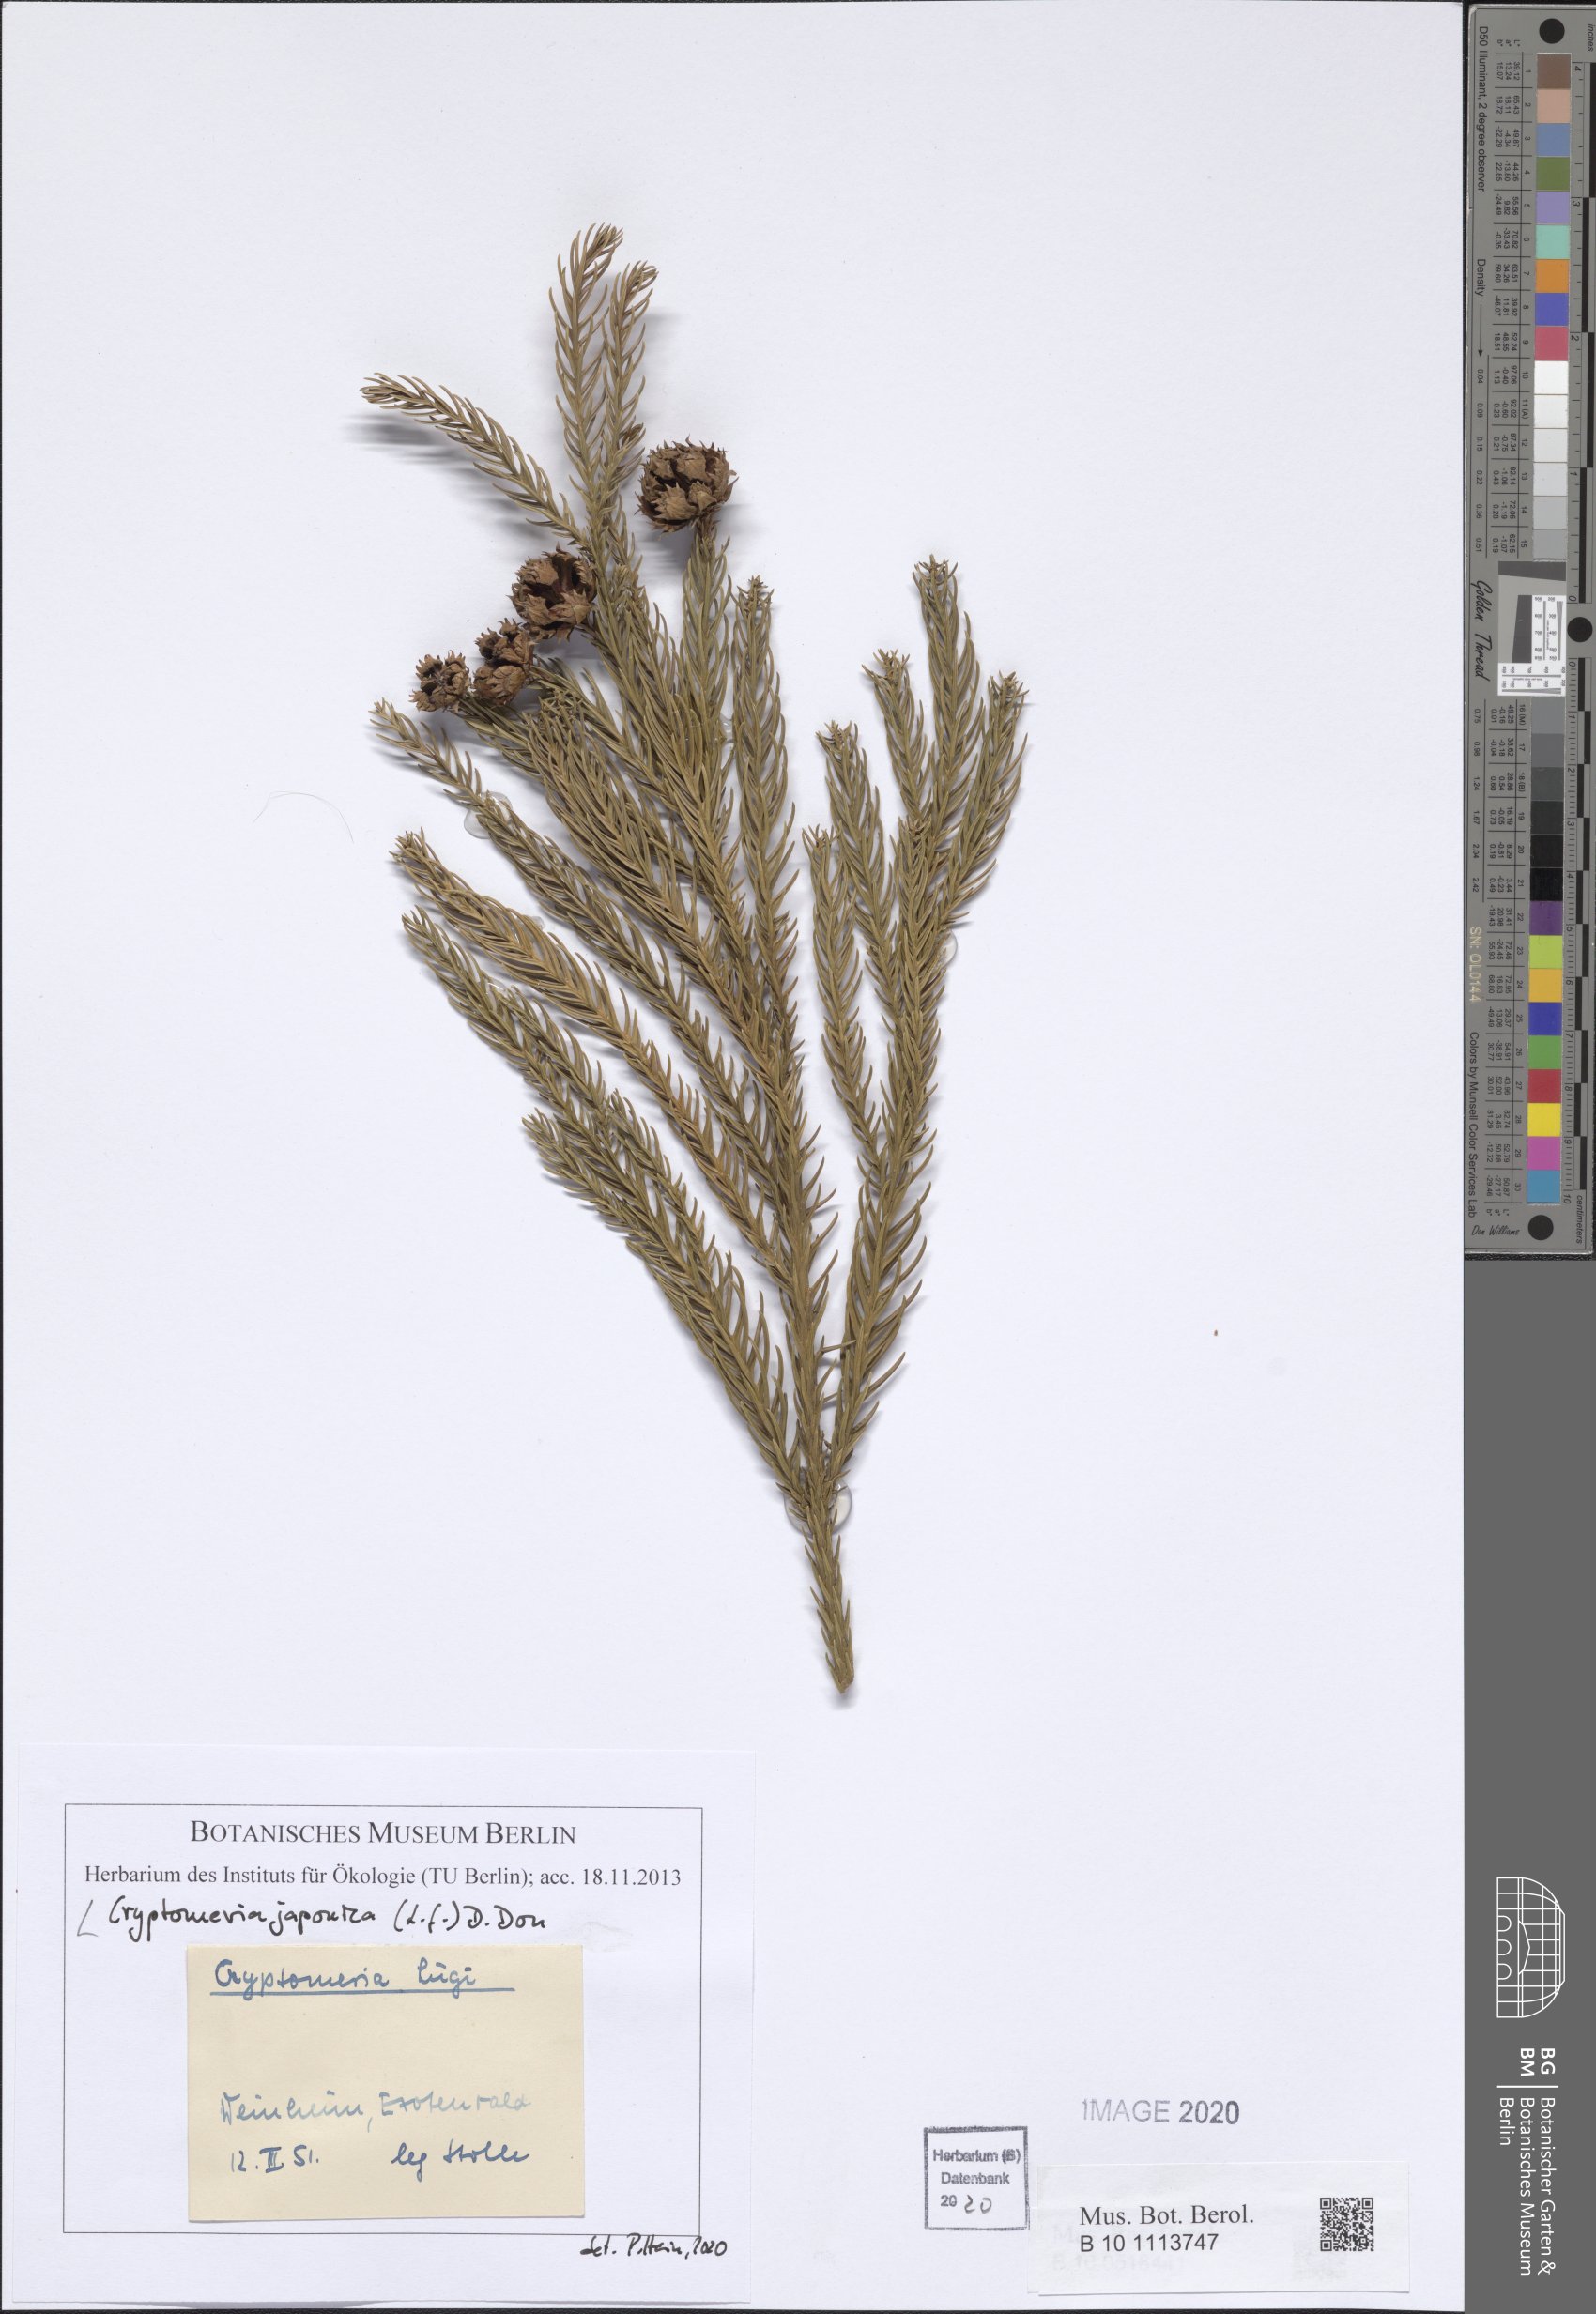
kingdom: Plantae
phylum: Tracheophyta
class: Pinopsida
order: Pinales
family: Cupressaceae
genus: Cryptomeria
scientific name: Cryptomeria japonica
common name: Japanese cedar
